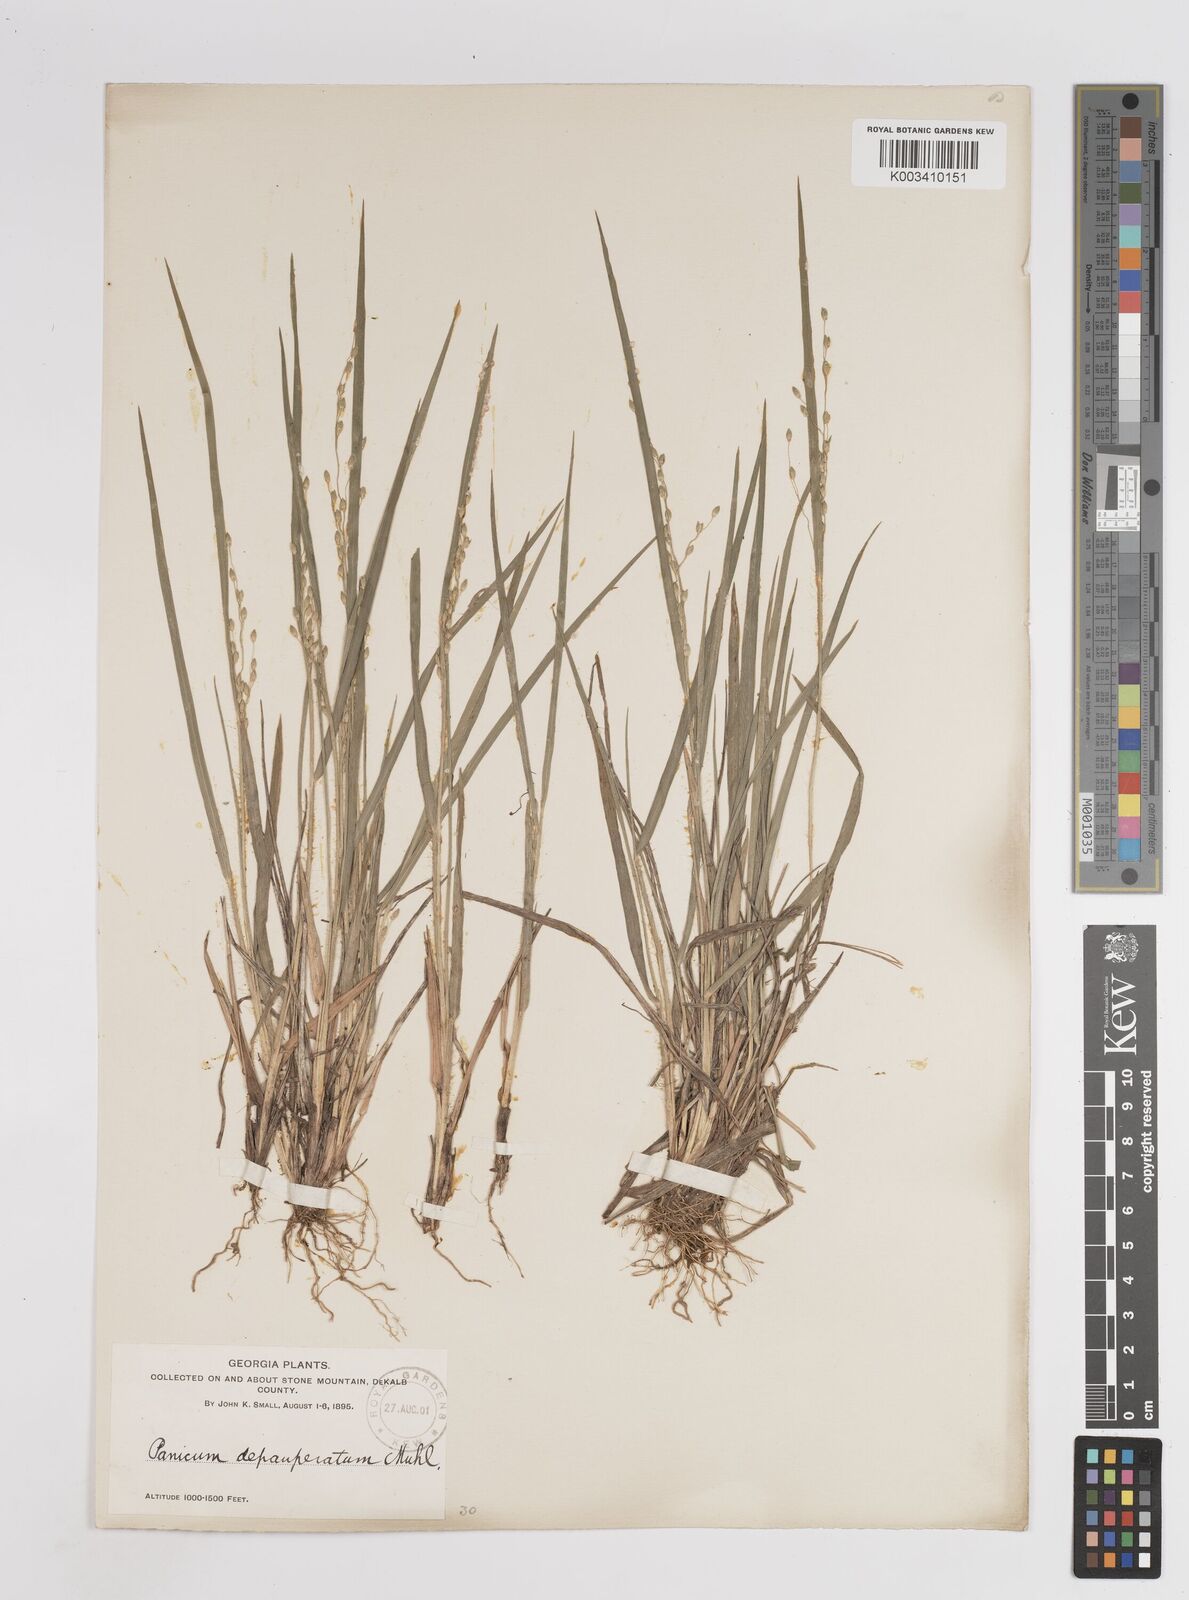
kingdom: Plantae
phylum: Tracheophyta
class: Liliopsida
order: Poales
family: Poaceae
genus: Dichanthelium
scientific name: Dichanthelium depauperatum
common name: Depauperate panicgrass
